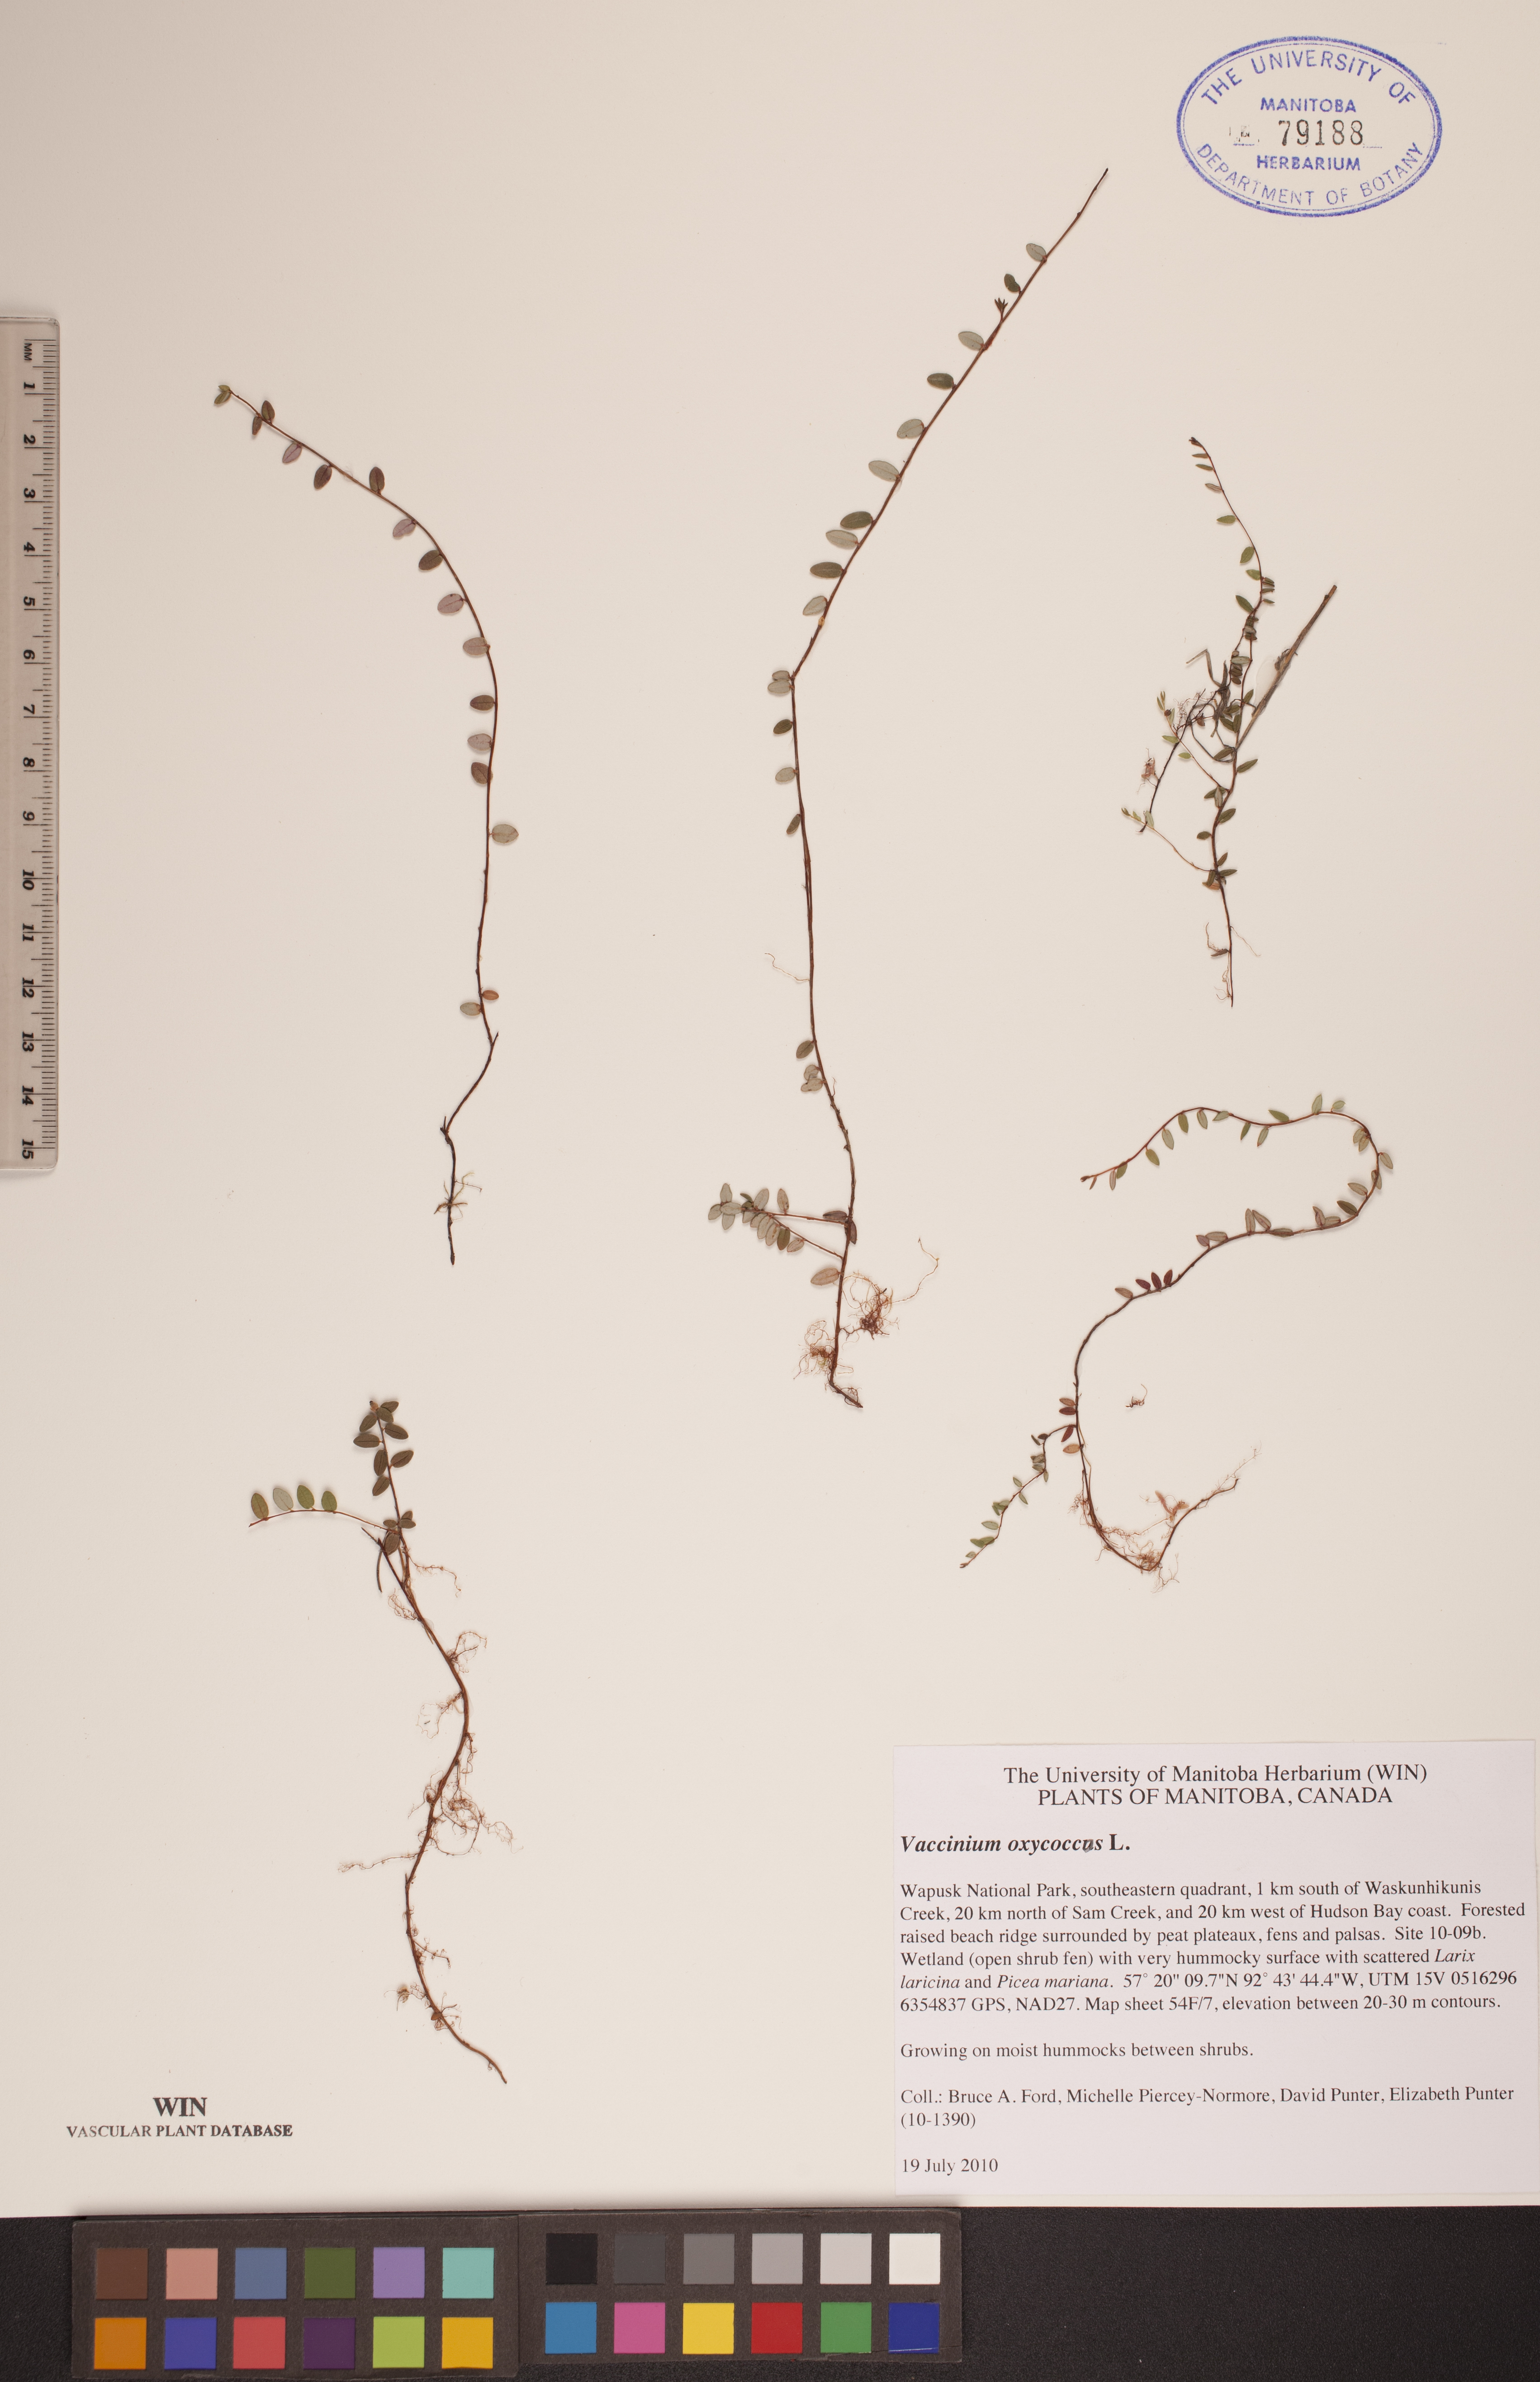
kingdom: Plantae
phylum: Tracheophyta
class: Magnoliopsida
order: Ericales
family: Ericaceae
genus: Vaccinium
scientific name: Vaccinium oxycoccos
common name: Cranberry
